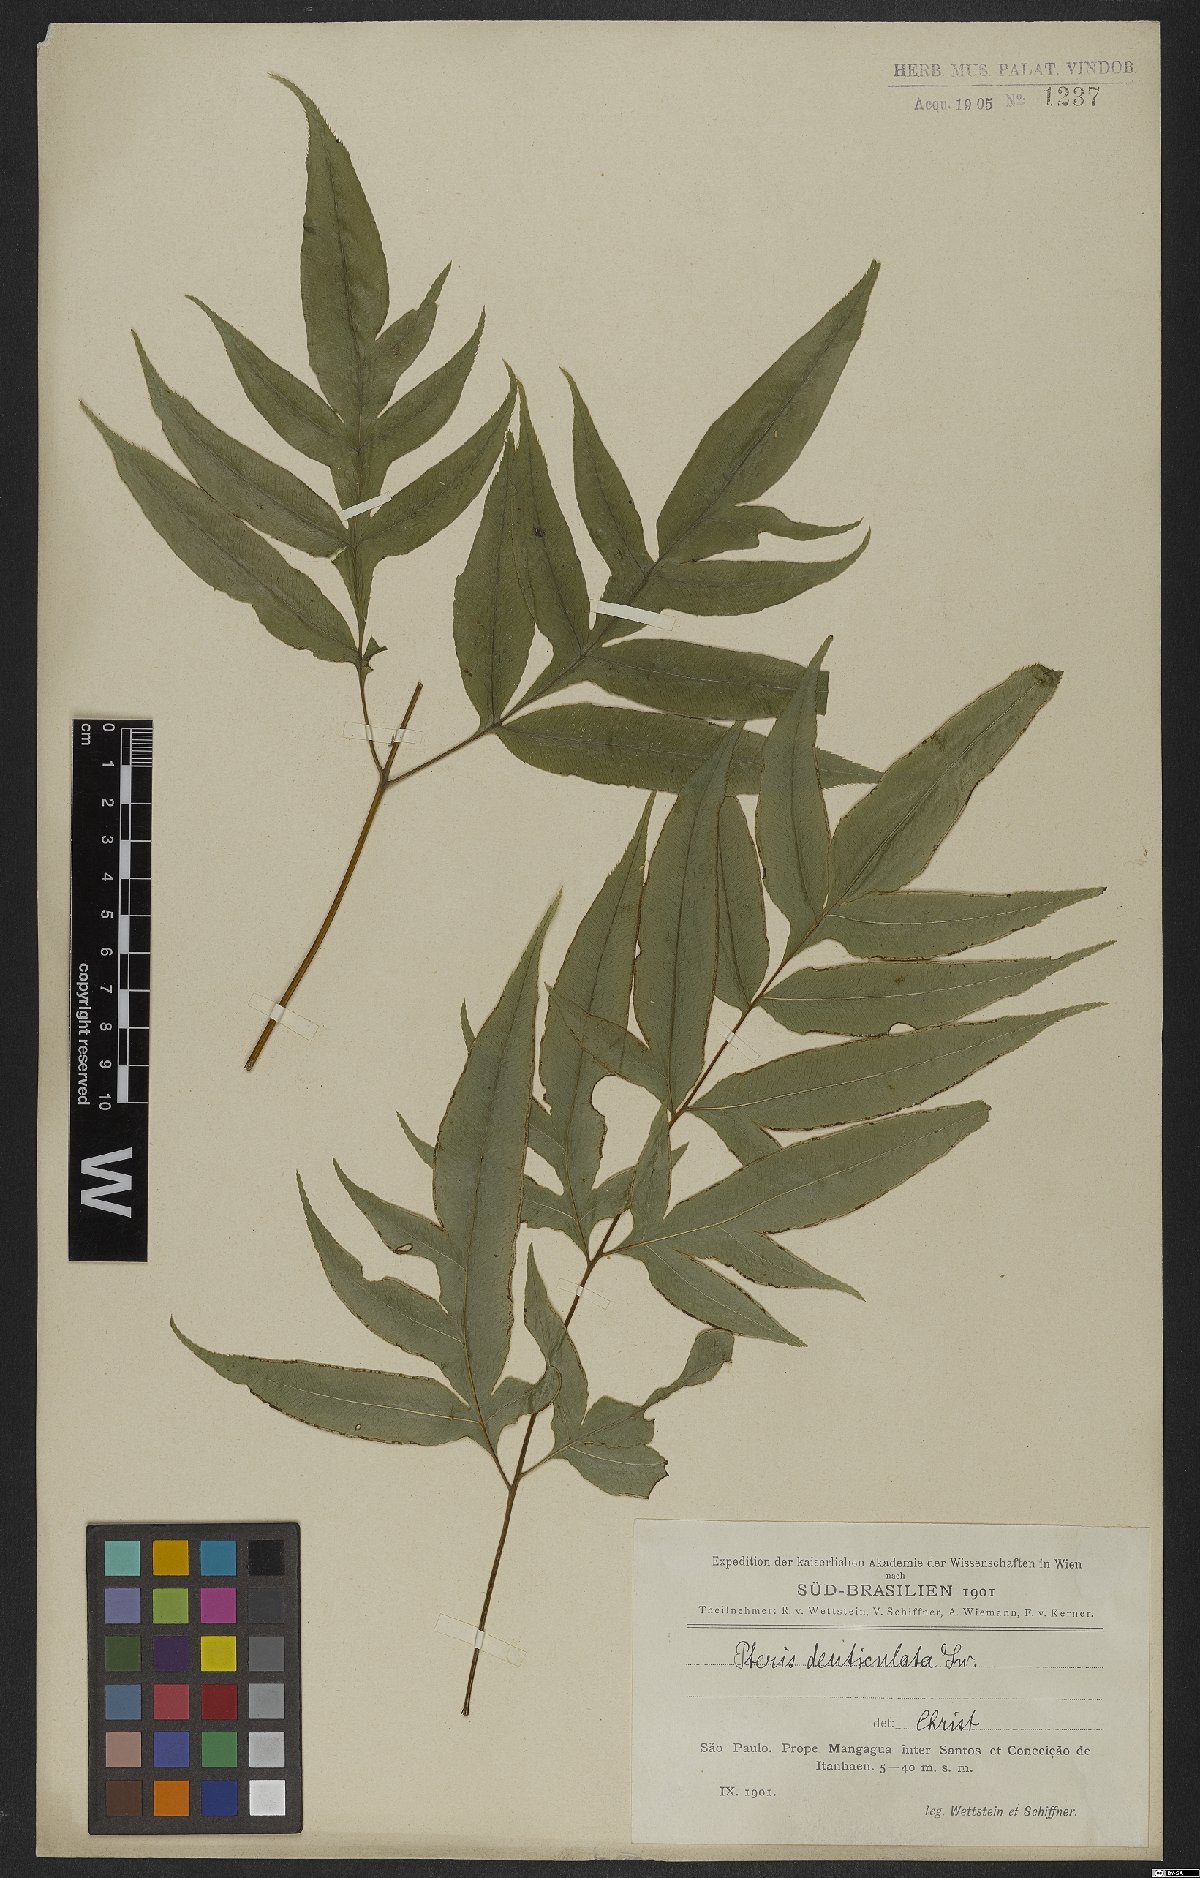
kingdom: Plantae
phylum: Tracheophyta
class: Polypodiopsida
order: Polypodiales
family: Pteridaceae
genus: Pteris
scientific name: Pteris denticulata
